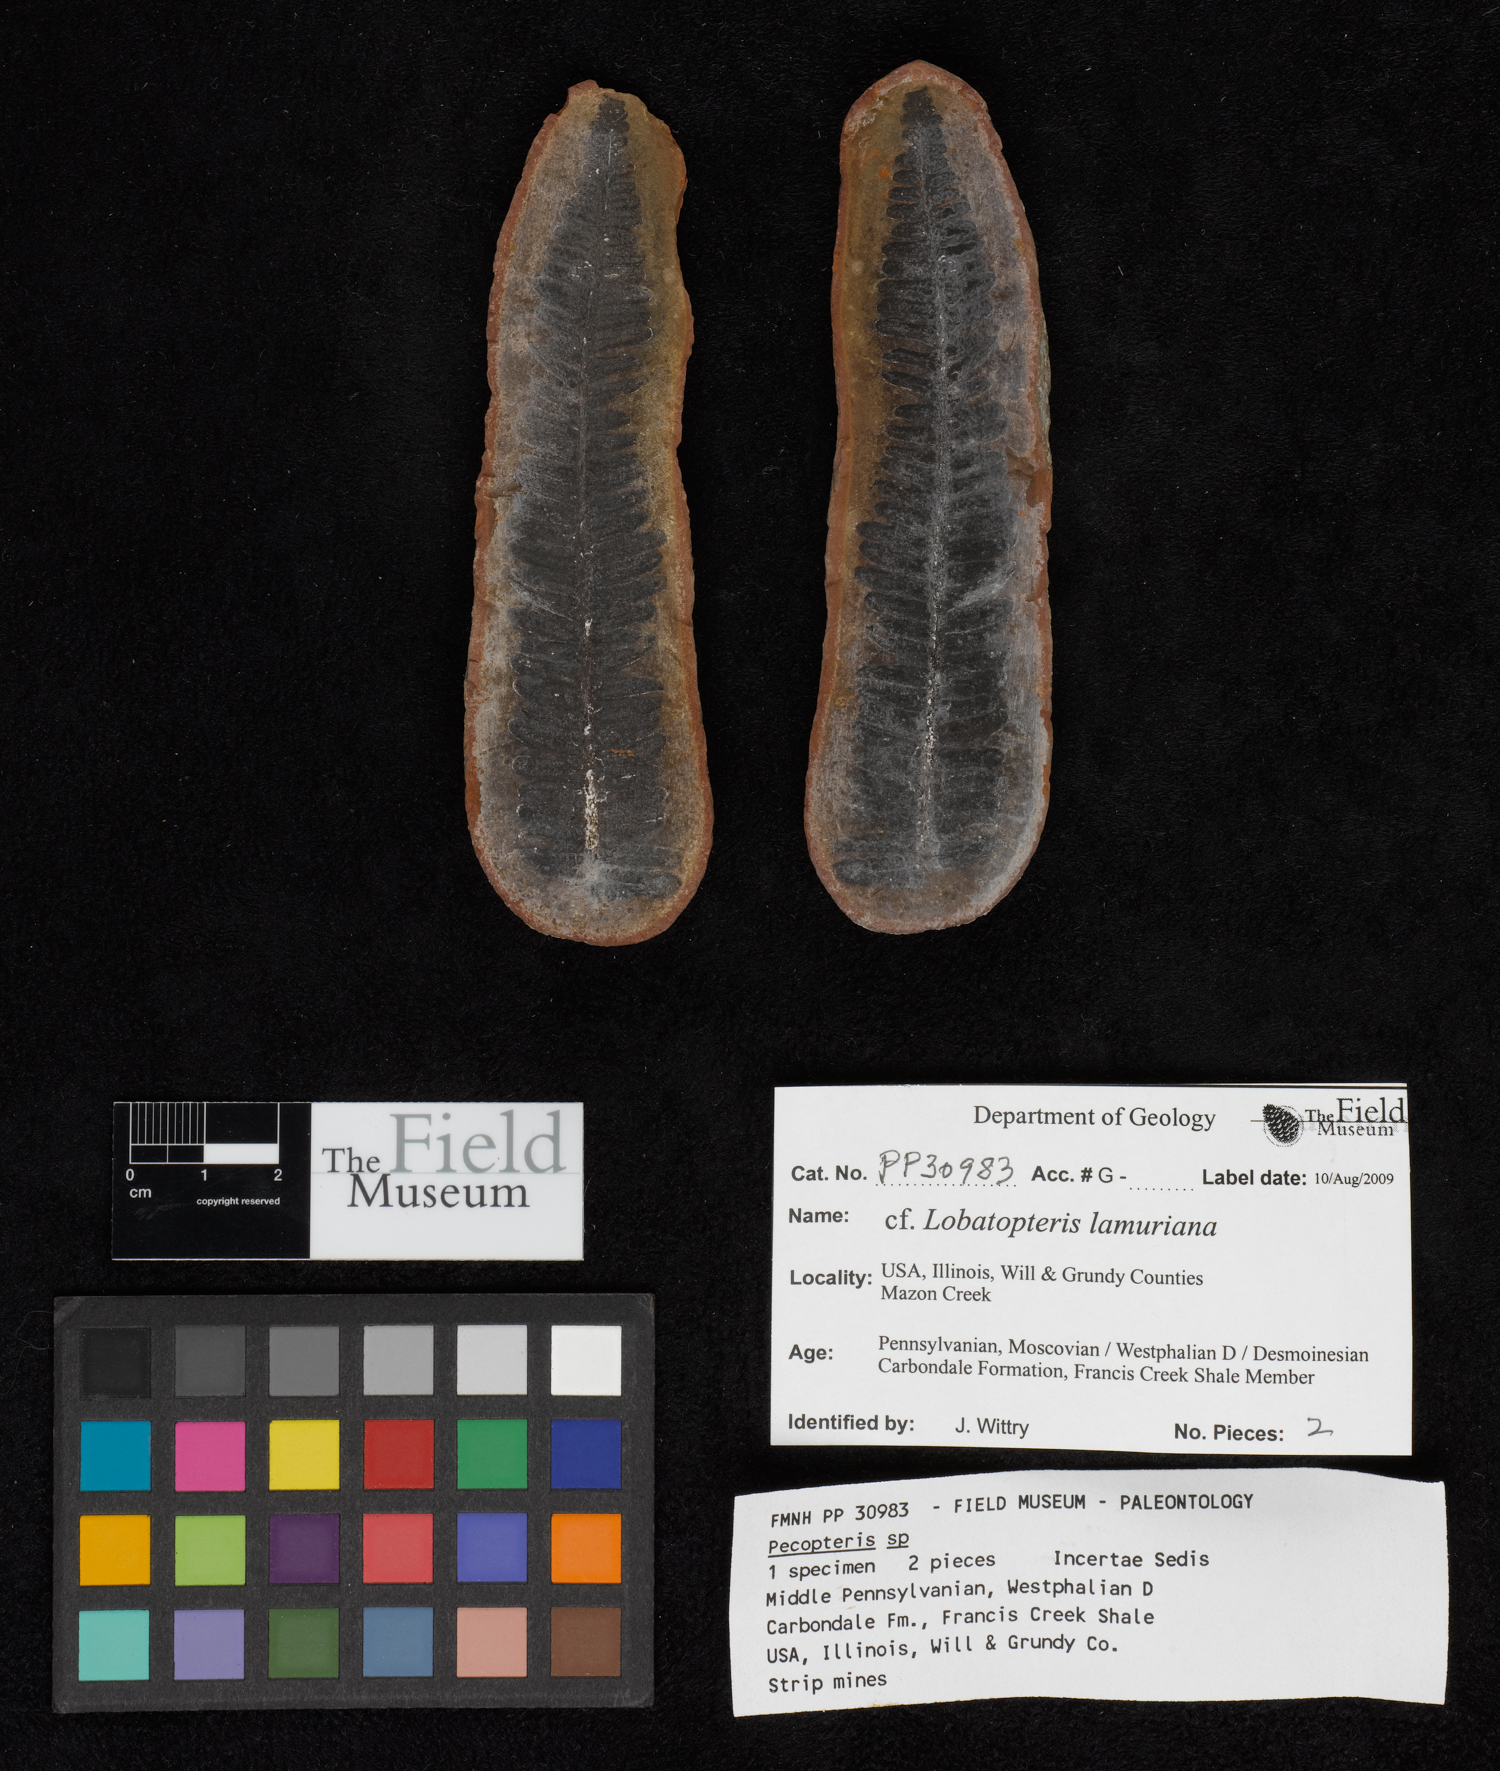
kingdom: Plantae
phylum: Tracheophyta
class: Polypodiopsida
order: Marattiales
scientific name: Marattiales
